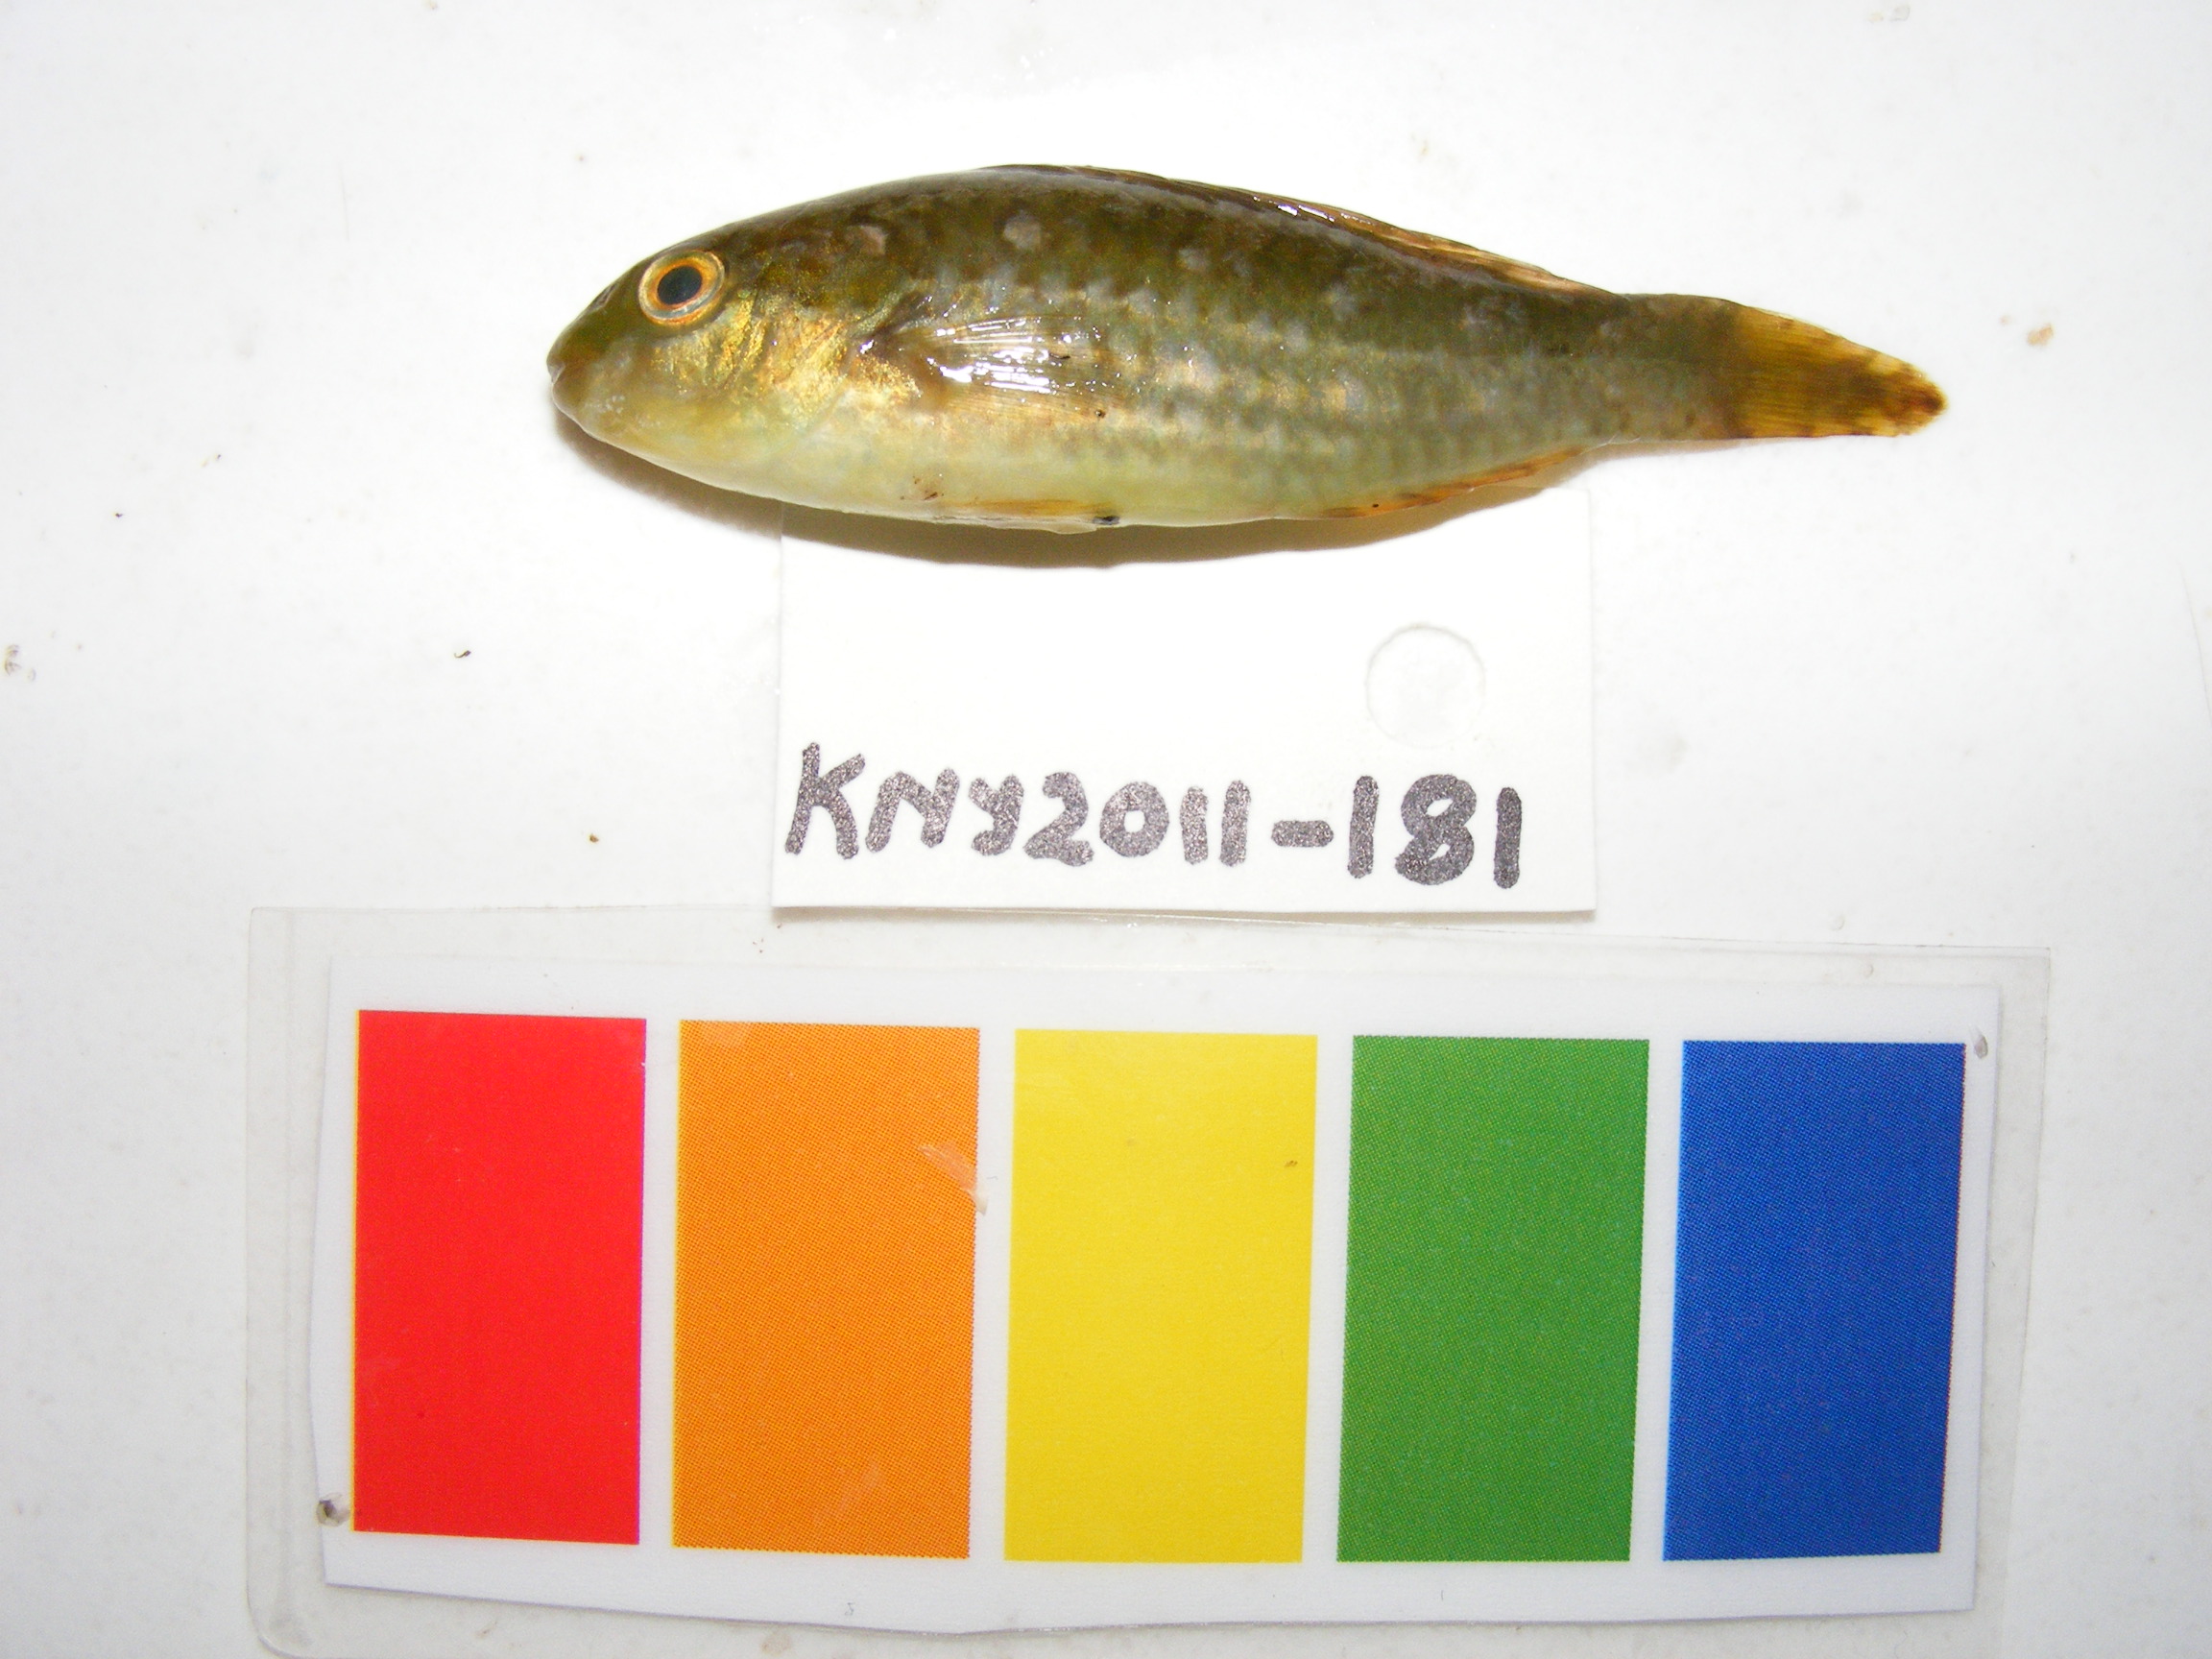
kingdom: Animalia
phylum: Chordata
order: Perciformes
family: Scaridae
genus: Leptoscarus
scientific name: Leptoscarus vaigiensis
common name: Marbled parrotfish
